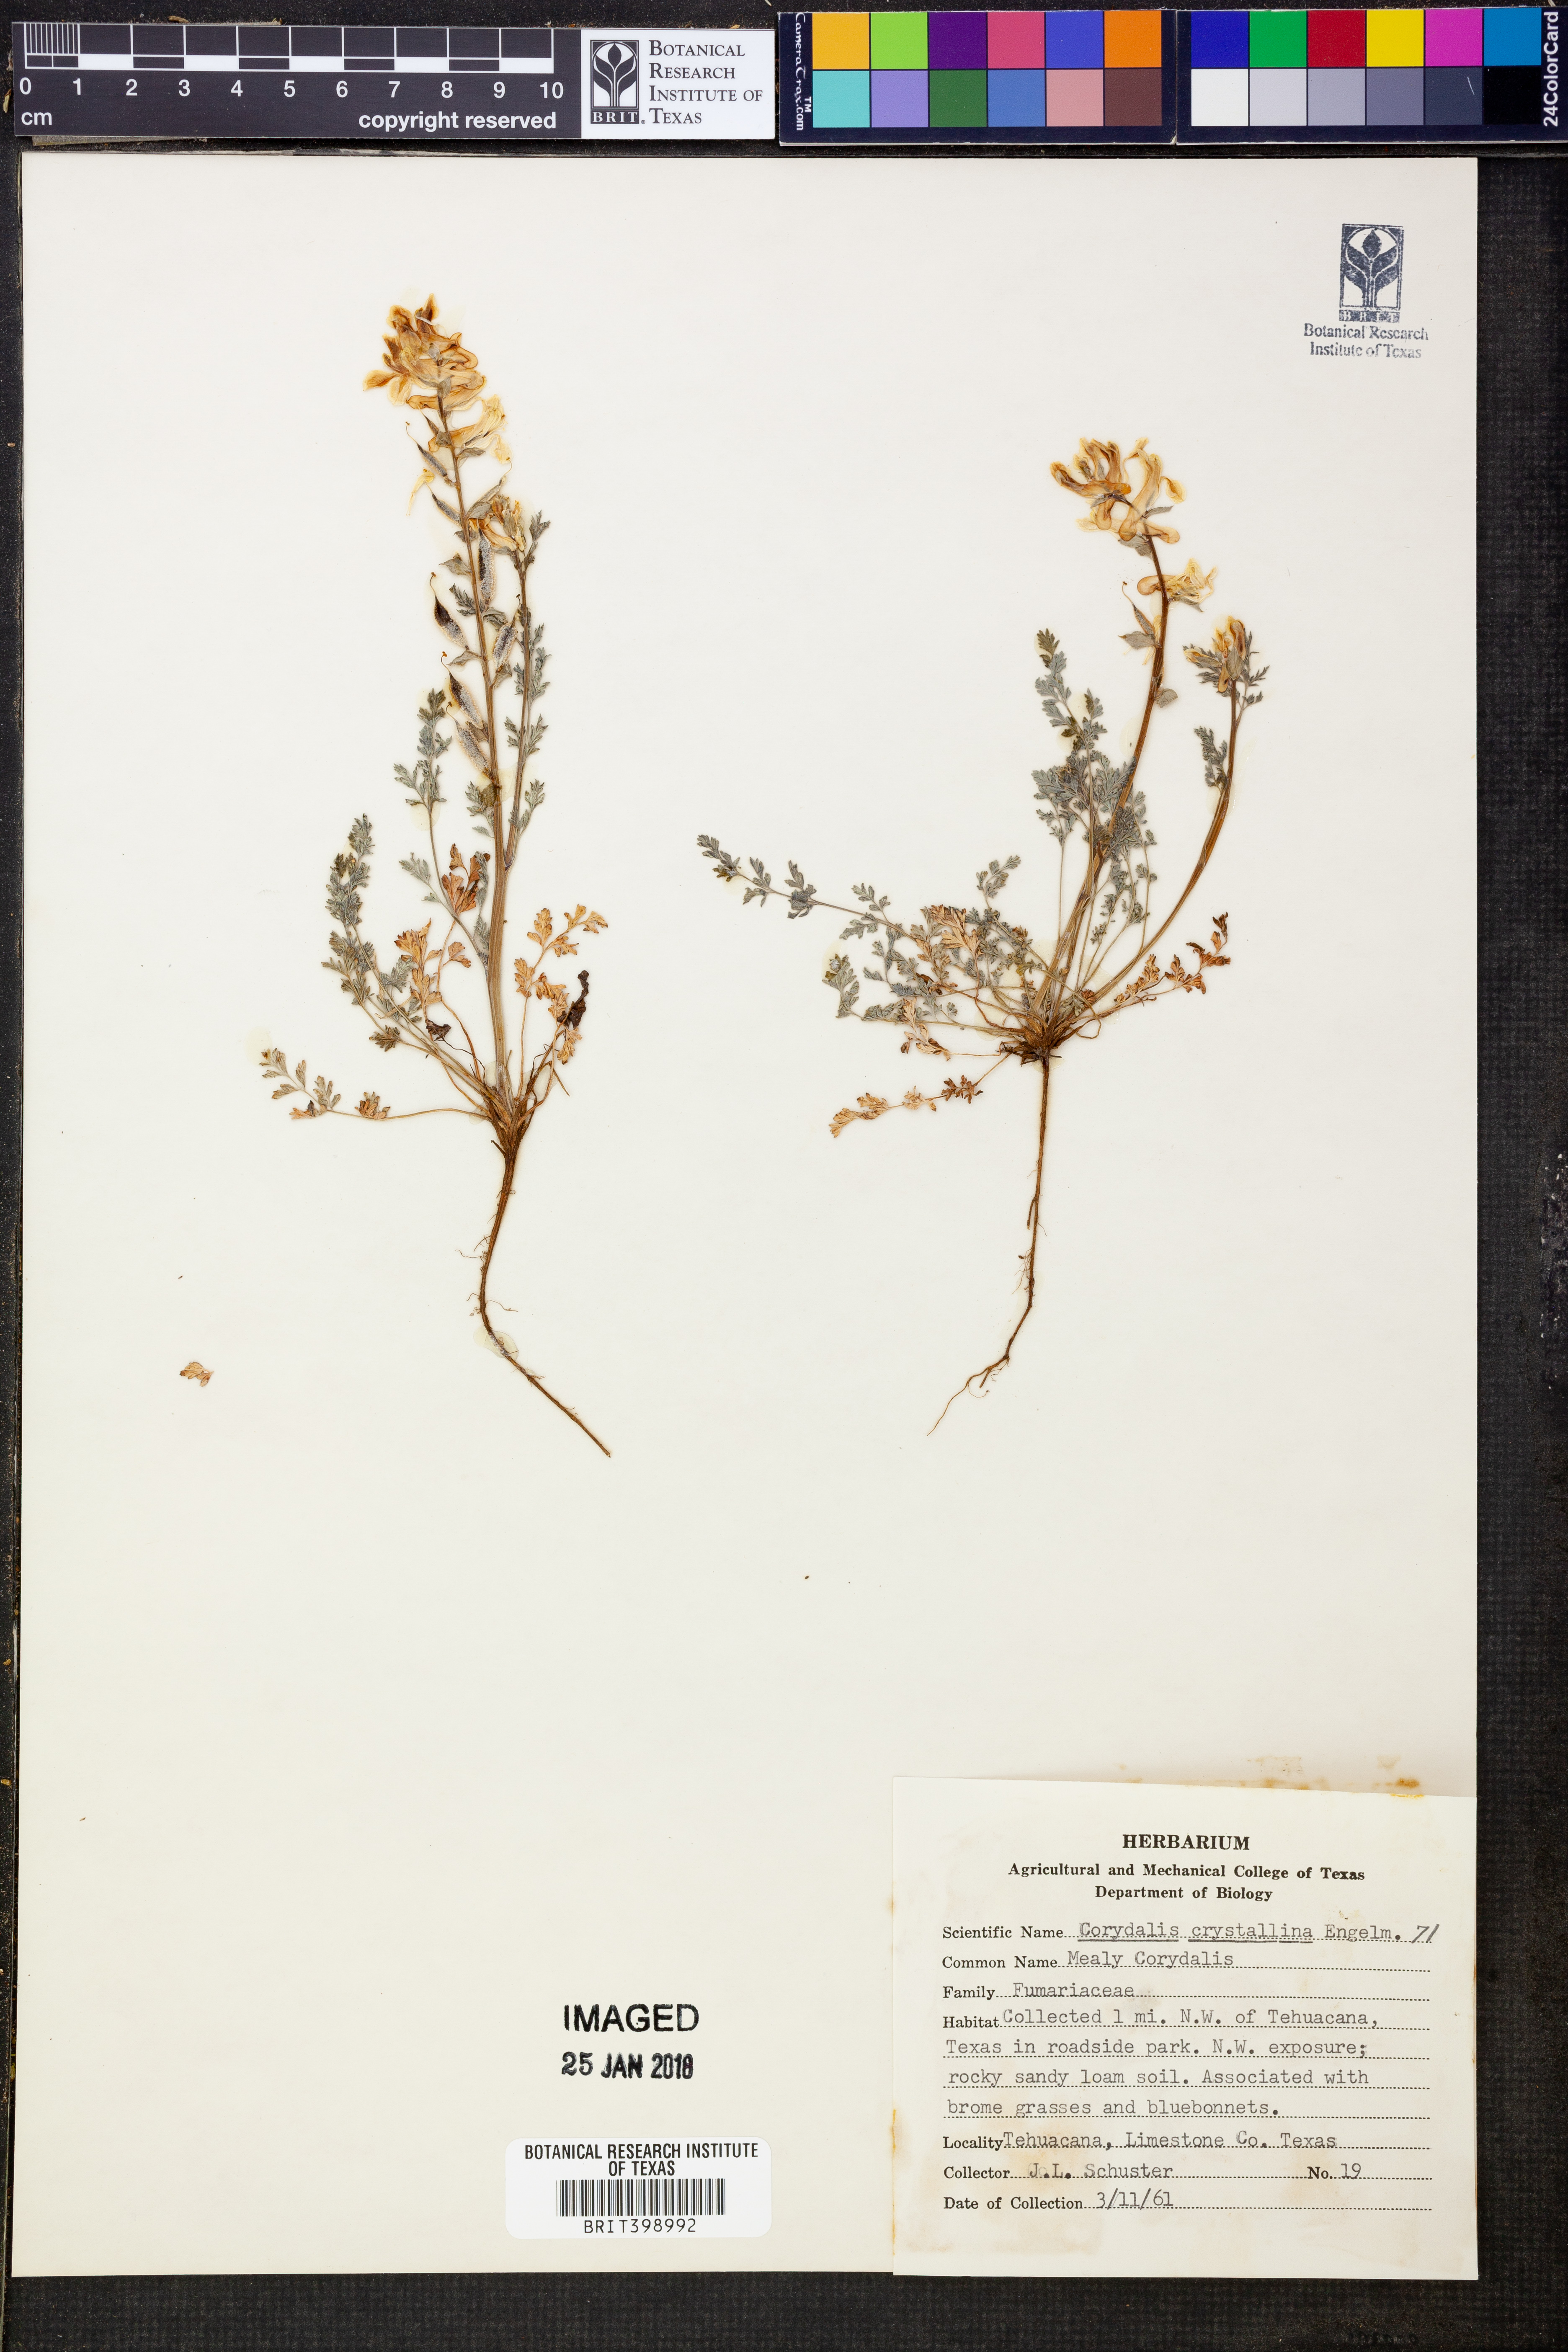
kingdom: Plantae
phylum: Tracheophyta
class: Magnoliopsida
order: Ranunculales
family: Papaveraceae
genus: Corydalis
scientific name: Corydalis crystallina
